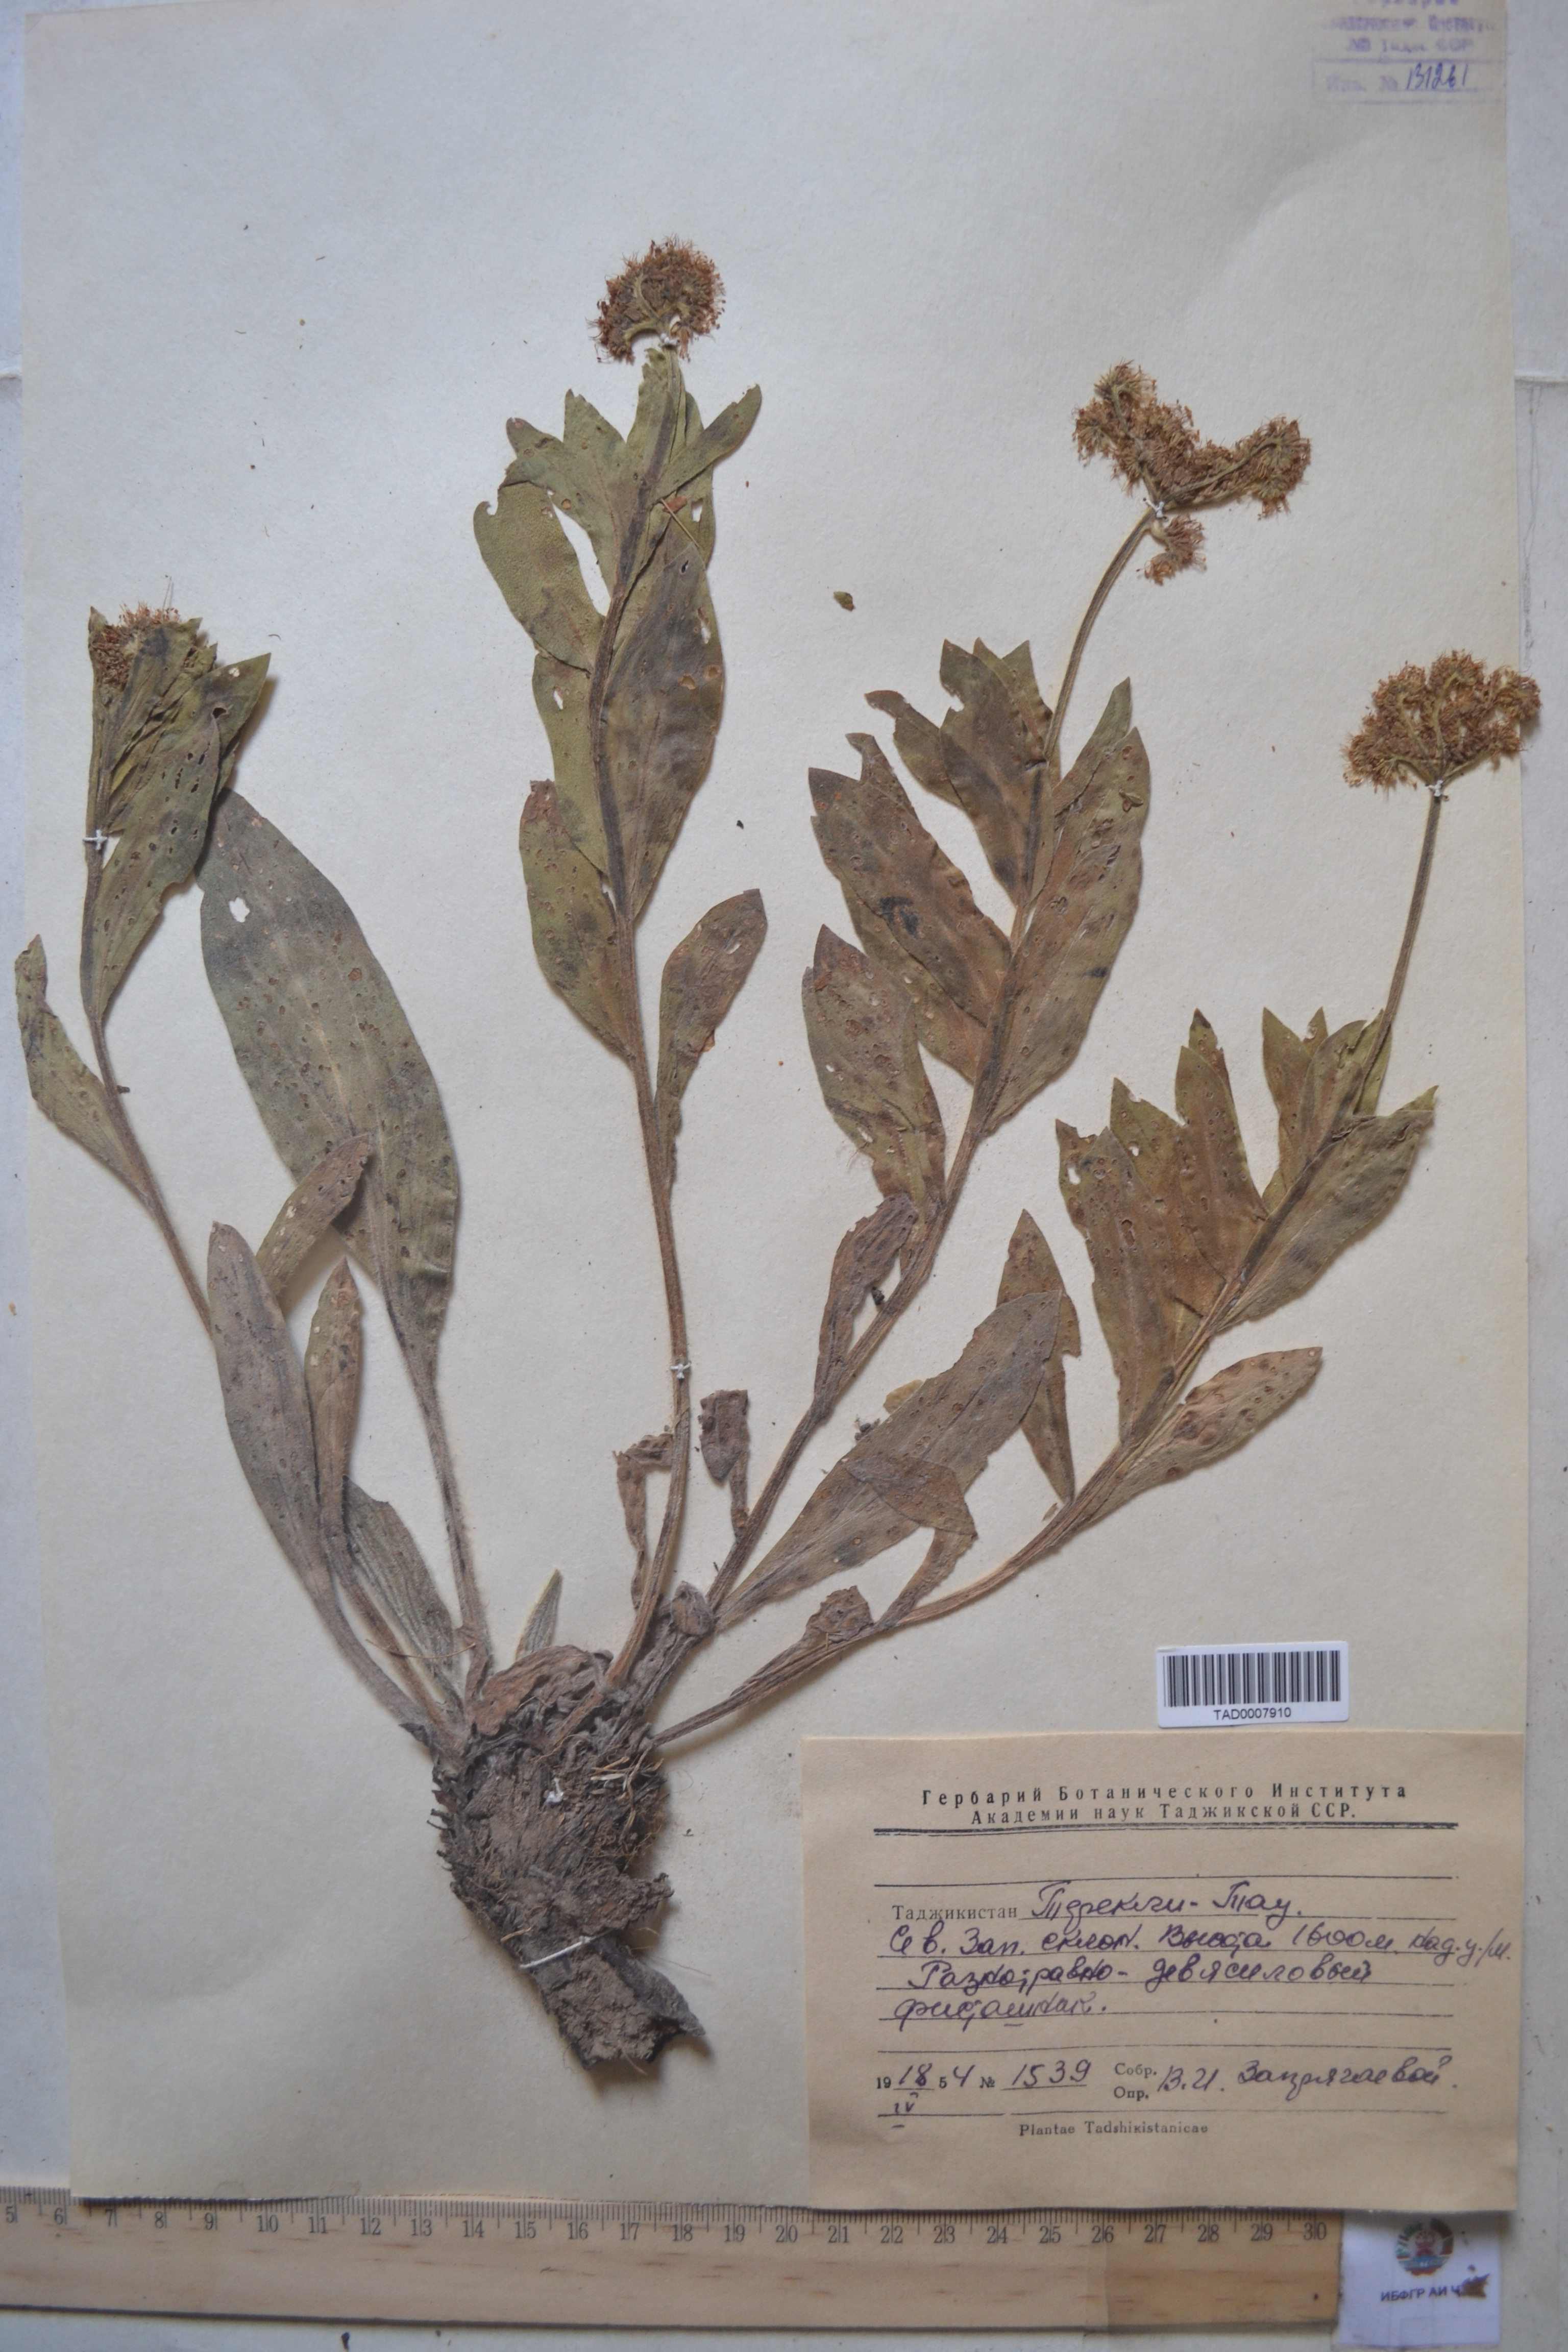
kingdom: Plantae
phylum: Tracheophyta
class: Magnoliopsida
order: Boraginales
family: Boraginaceae
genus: Solenanthus
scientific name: Solenanthus turkestanicus
